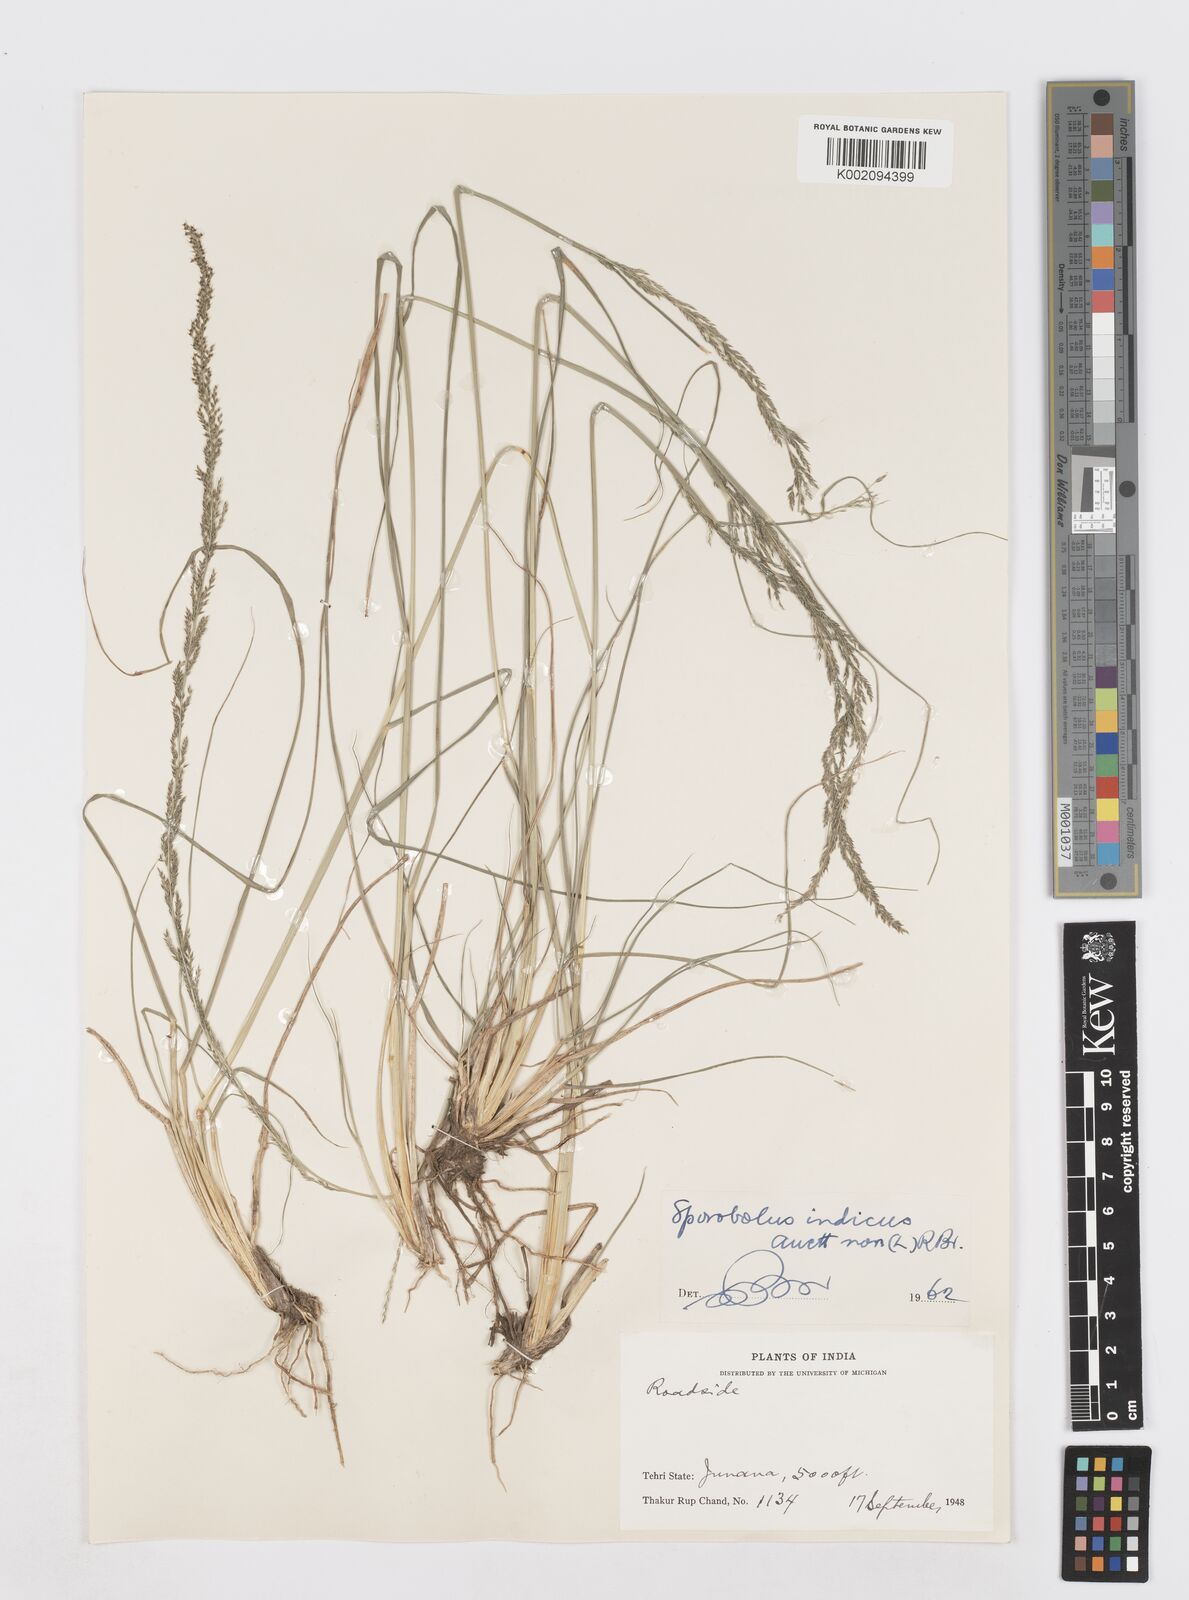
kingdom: Plantae
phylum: Tracheophyta
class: Liliopsida
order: Poales
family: Poaceae
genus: Sporobolus
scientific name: Sporobolus fertilis
